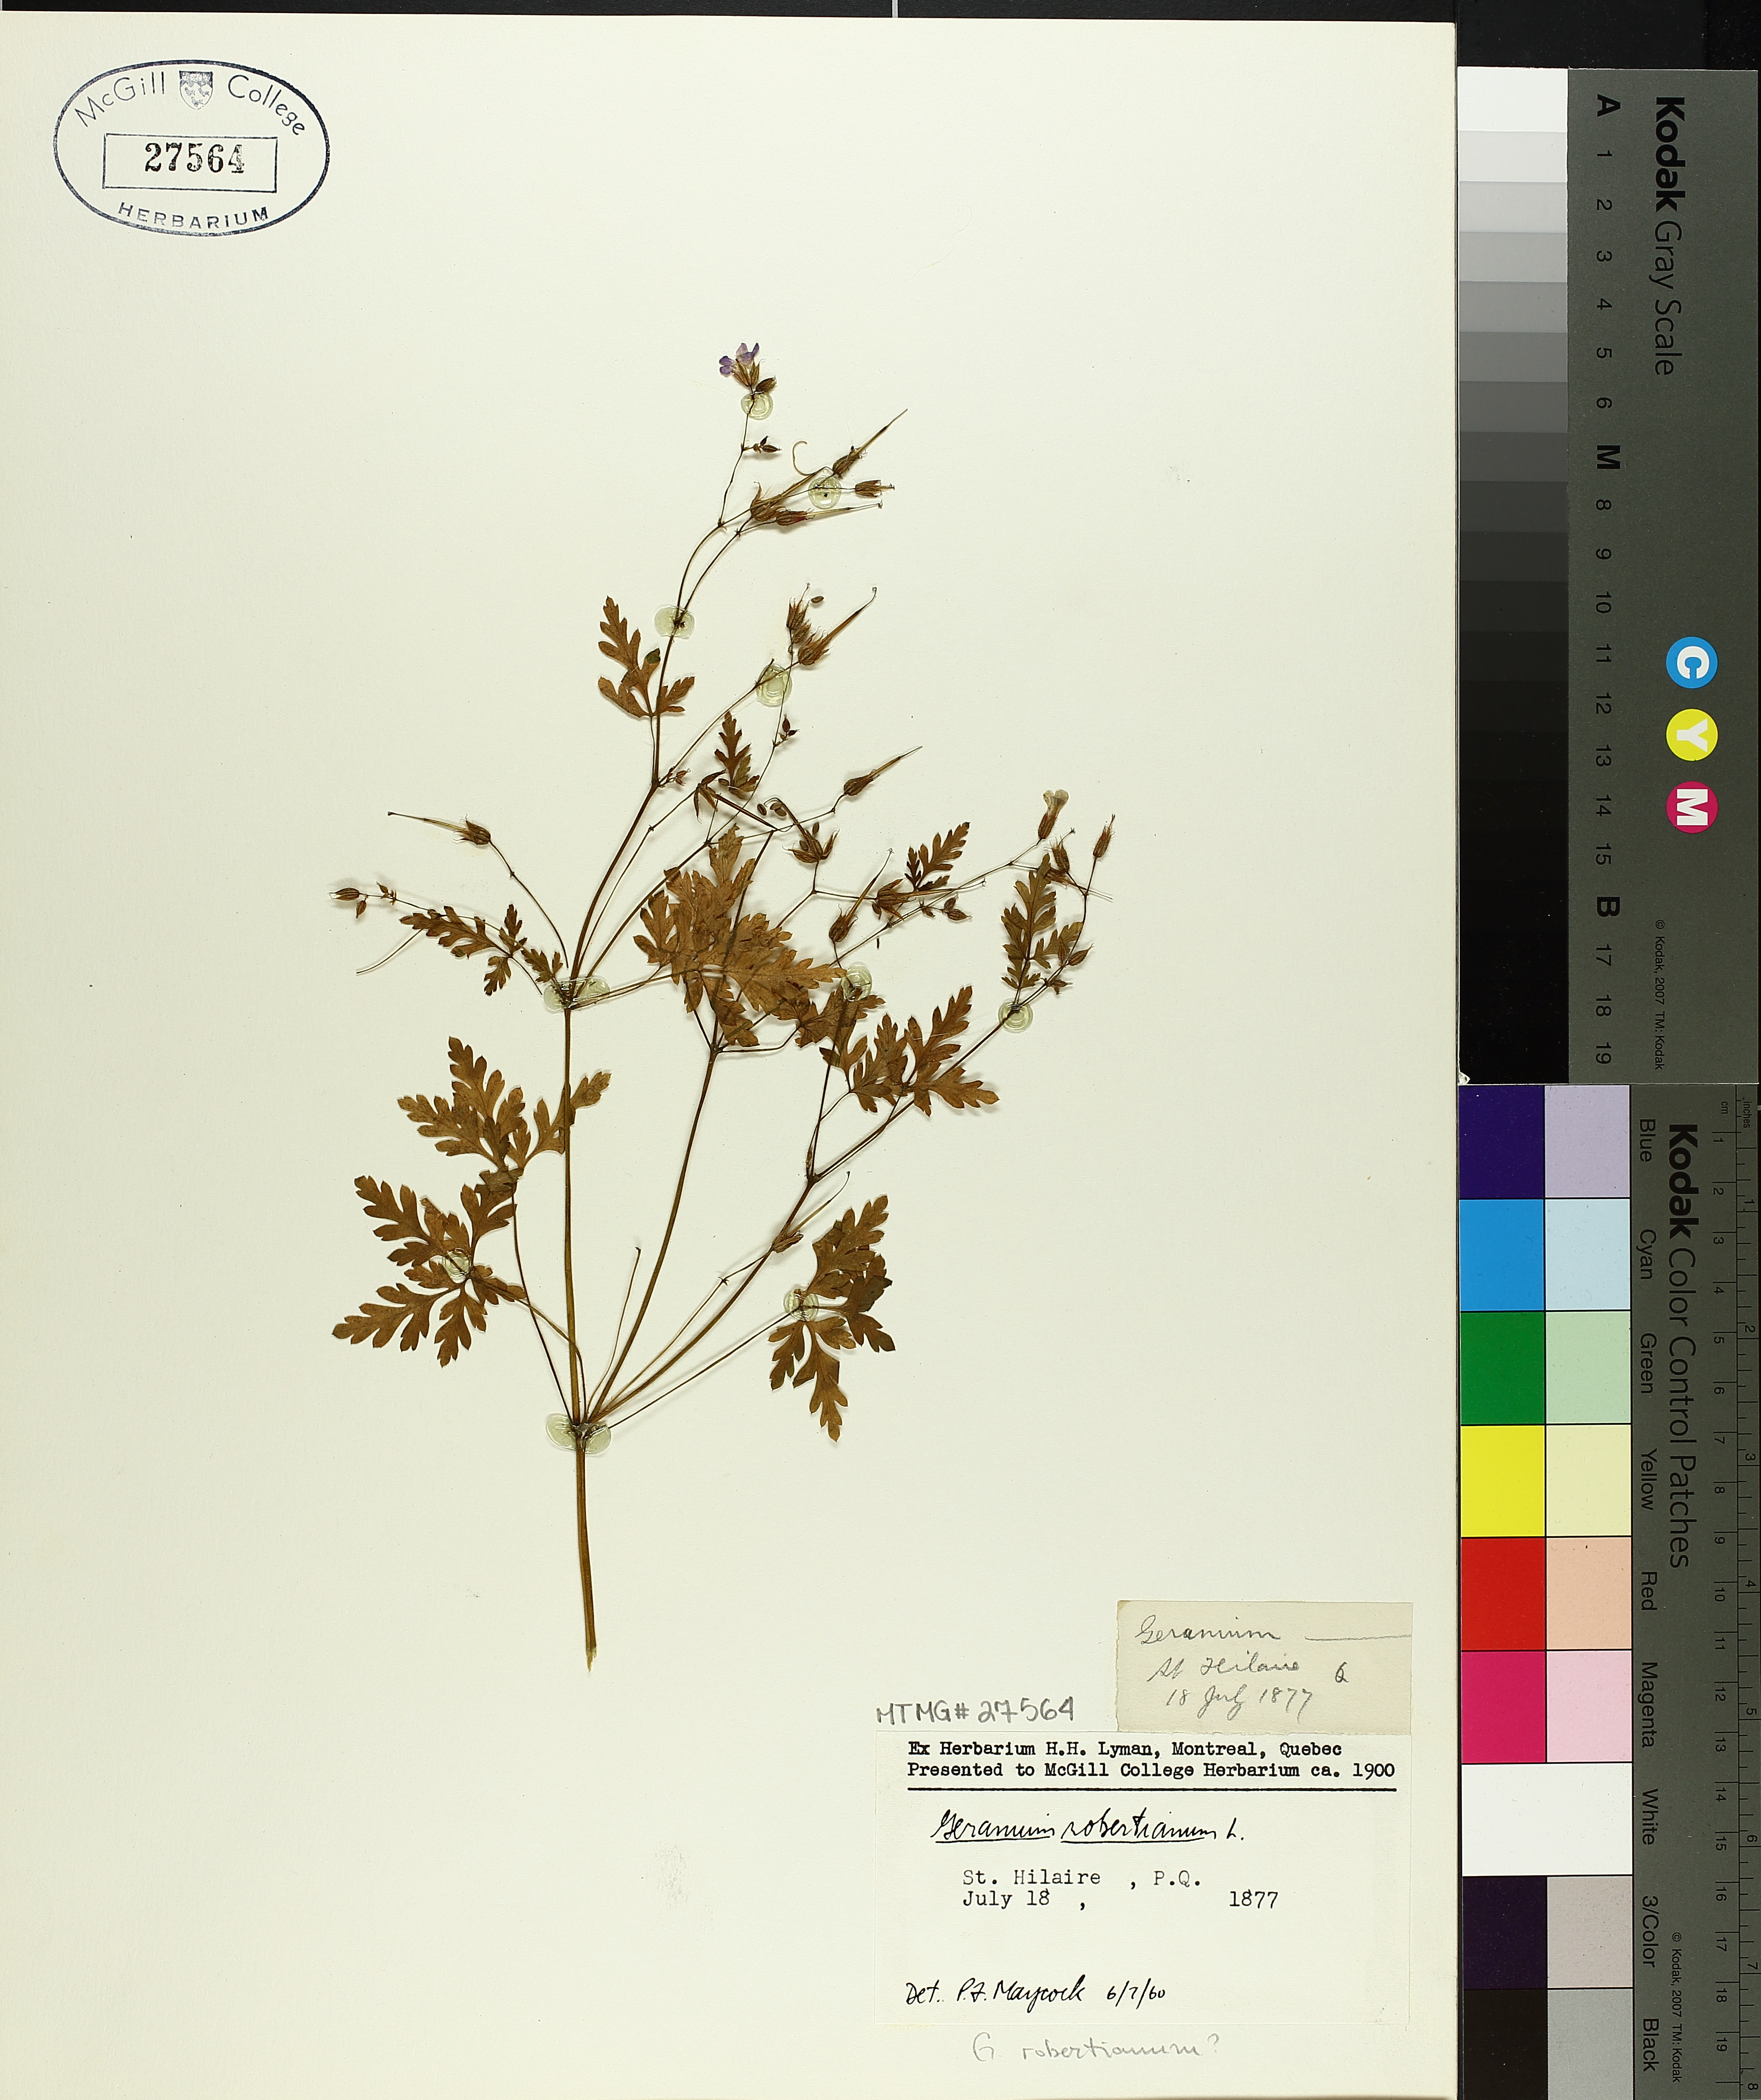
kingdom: Plantae
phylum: Tracheophyta
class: Magnoliopsida
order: Geraniales
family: Geraniaceae
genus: Geranium
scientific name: Geranium robertianum
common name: Herb-robert
